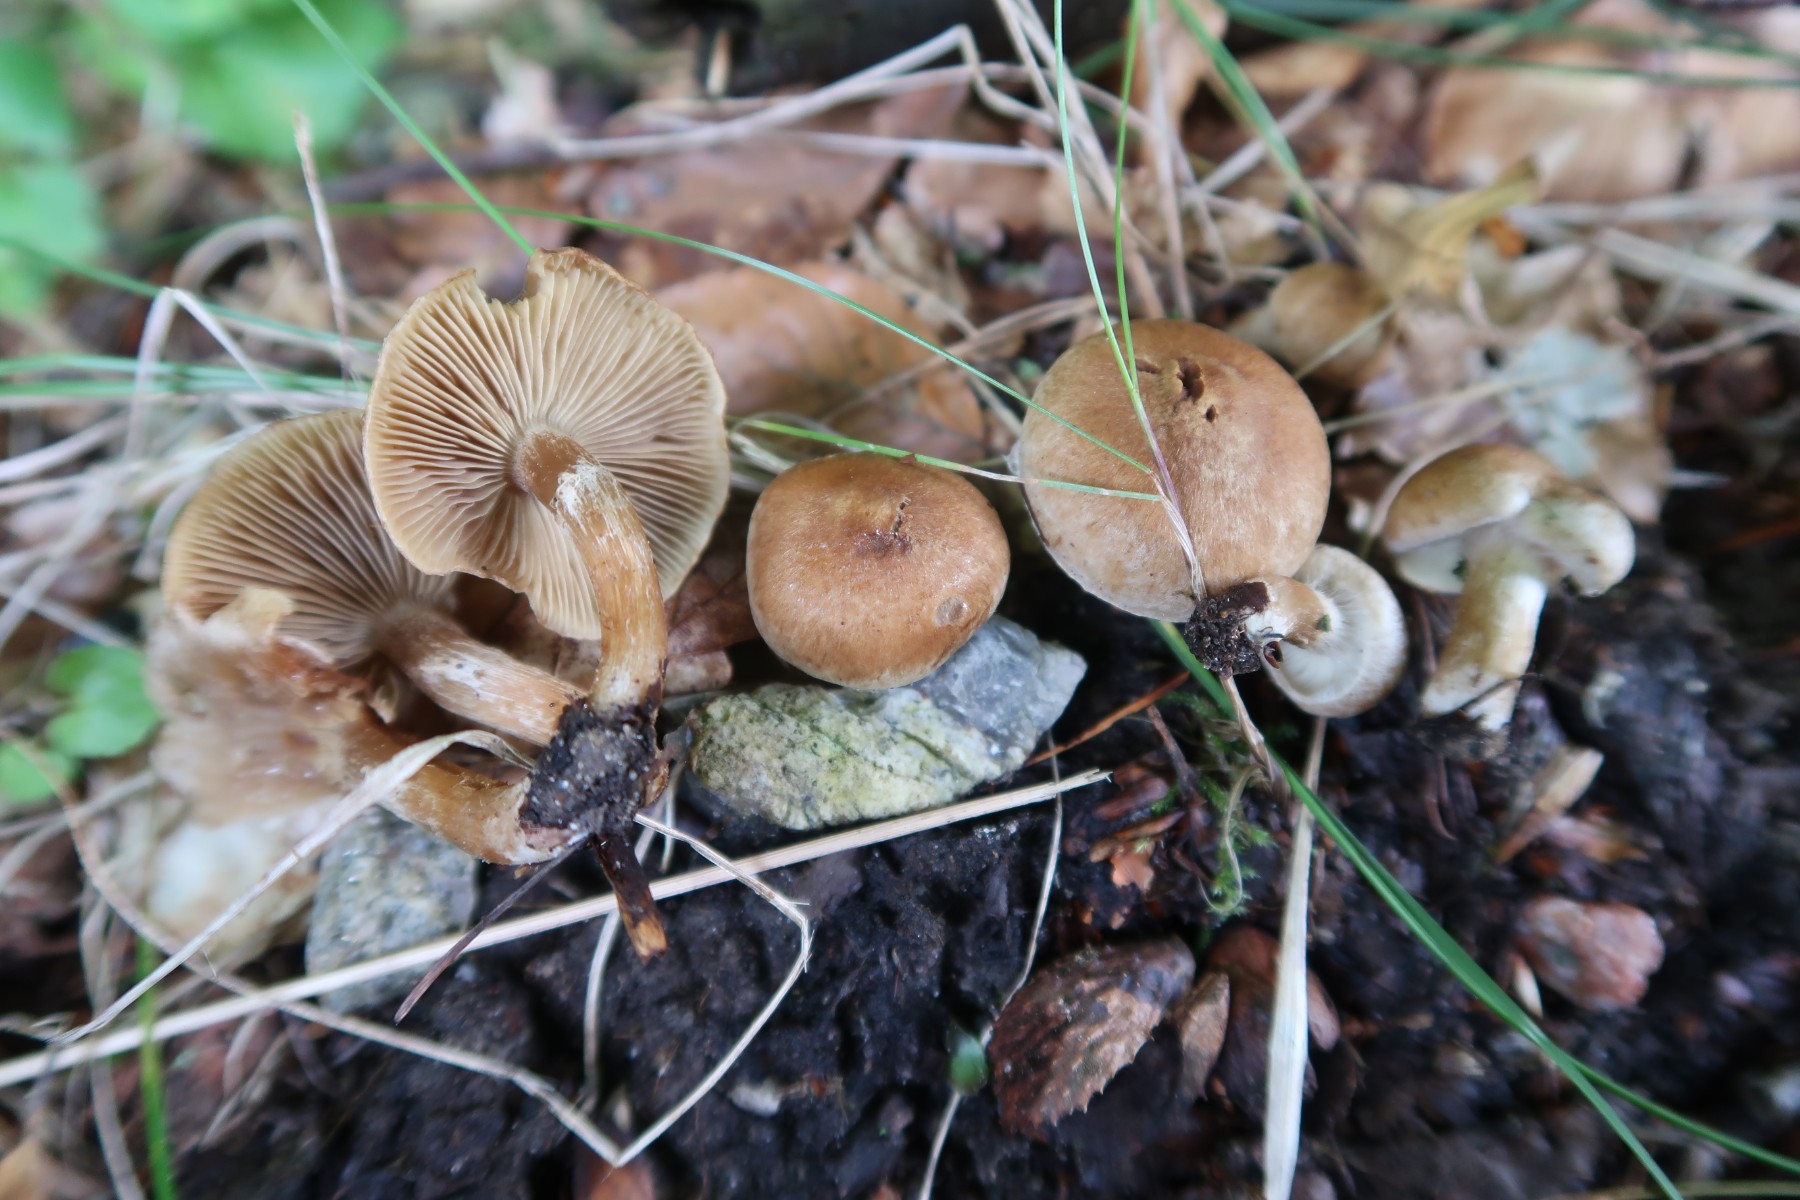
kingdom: Fungi
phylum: Basidiomycota
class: Agaricomycetes
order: Agaricales
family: Inocybaceae
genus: Mallocybe
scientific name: Mallocybe
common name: Trævlhat
